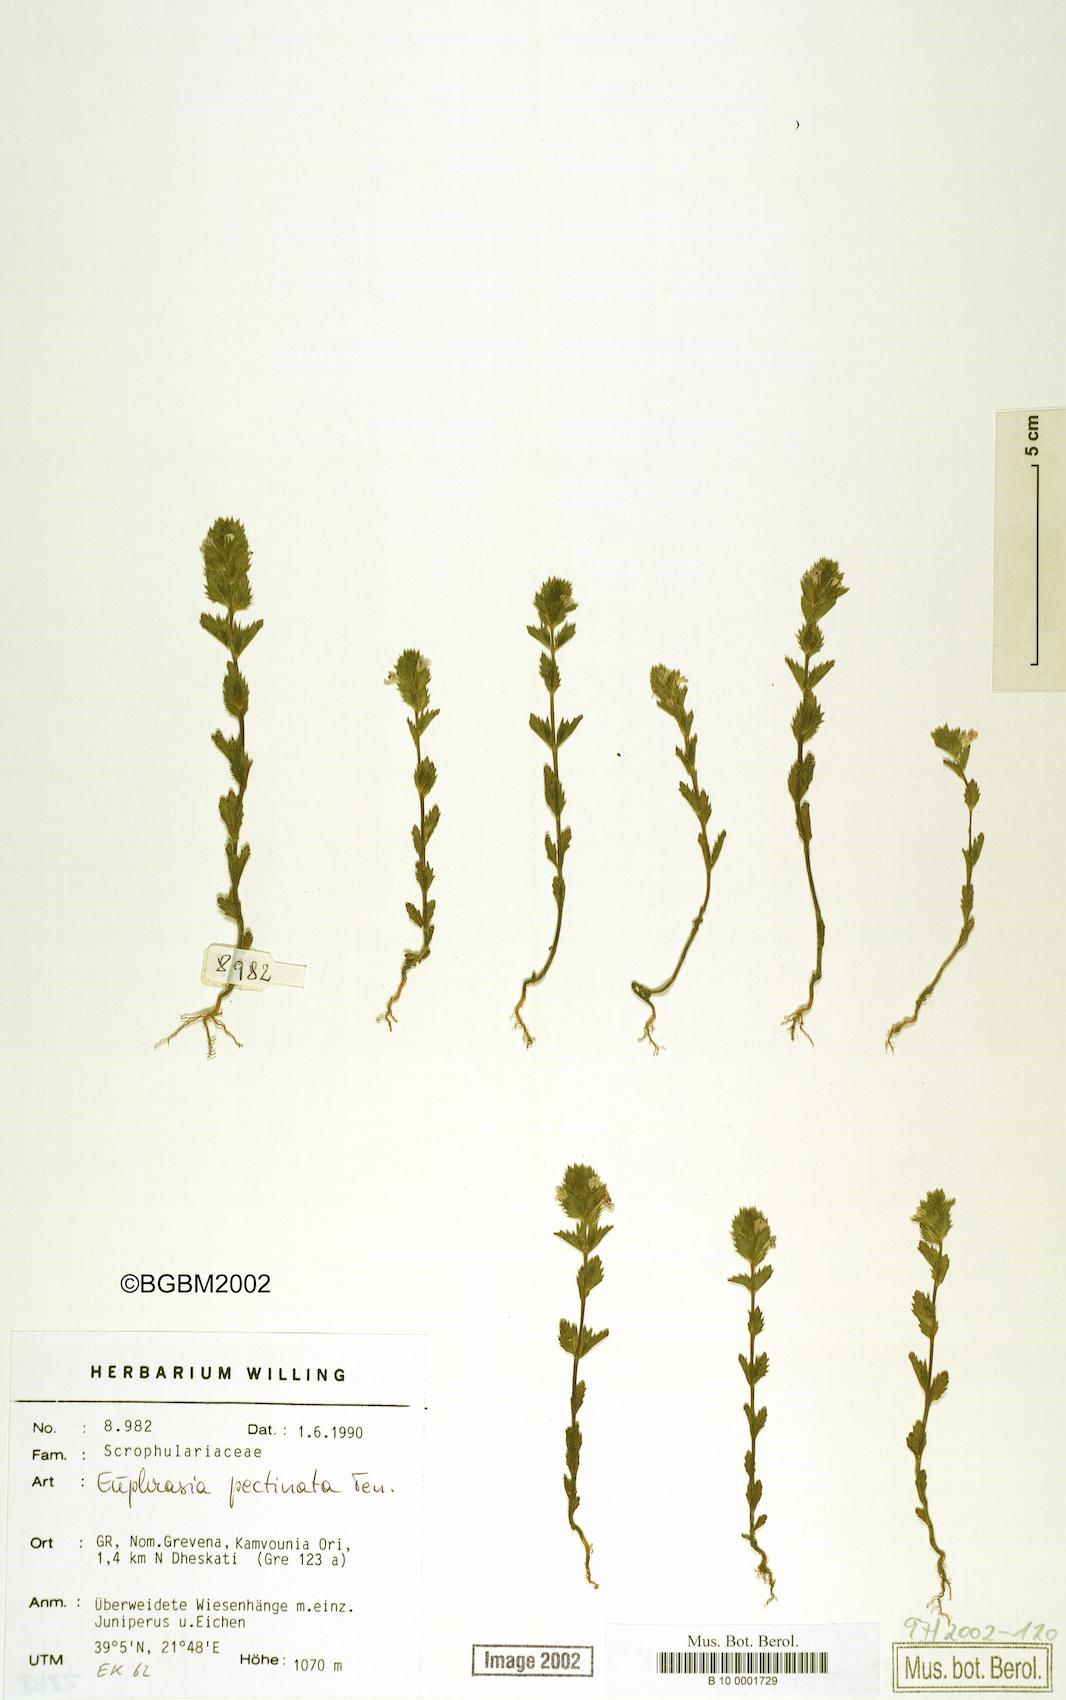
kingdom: Plantae
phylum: Tracheophyta
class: Magnoliopsida
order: Lamiales
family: Orobanchaceae
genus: Euphrasia
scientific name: Euphrasia pectinata
